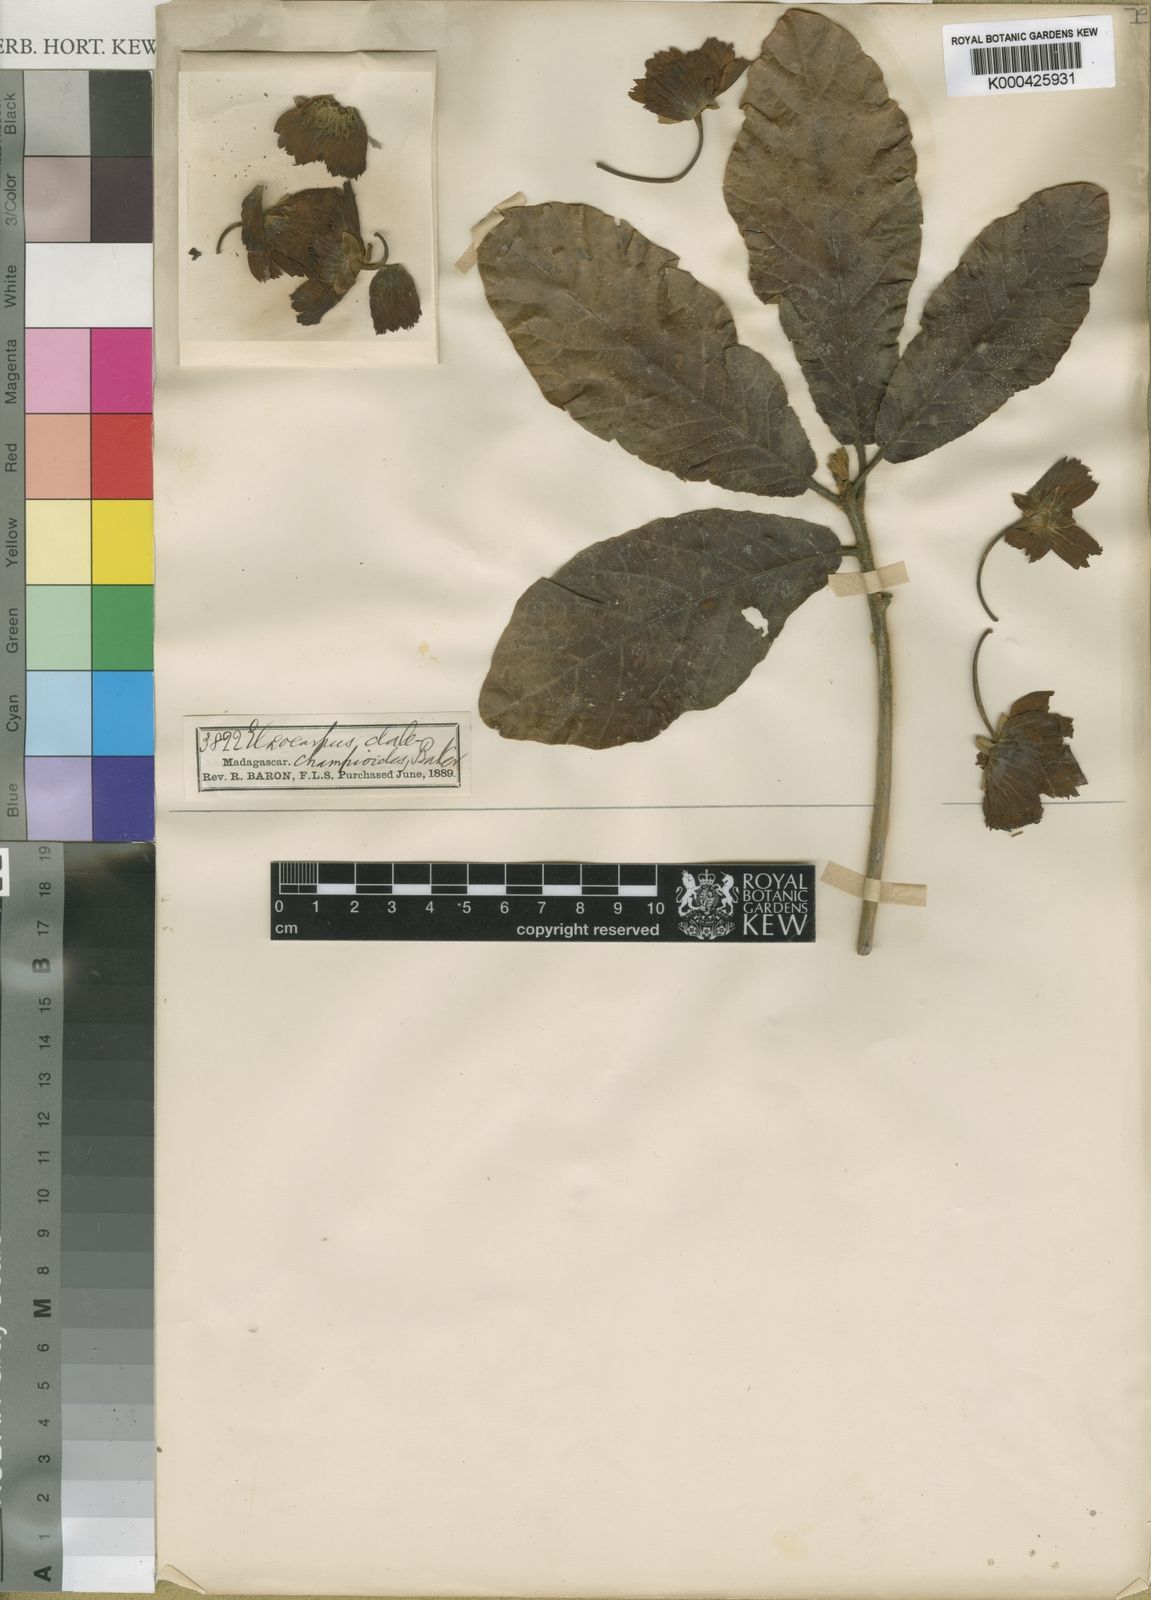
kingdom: Plantae
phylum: Tracheophyta
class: Magnoliopsida
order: Oxalidales
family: Elaeocarpaceae
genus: Sloanea
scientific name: Sloanea rhodantha
